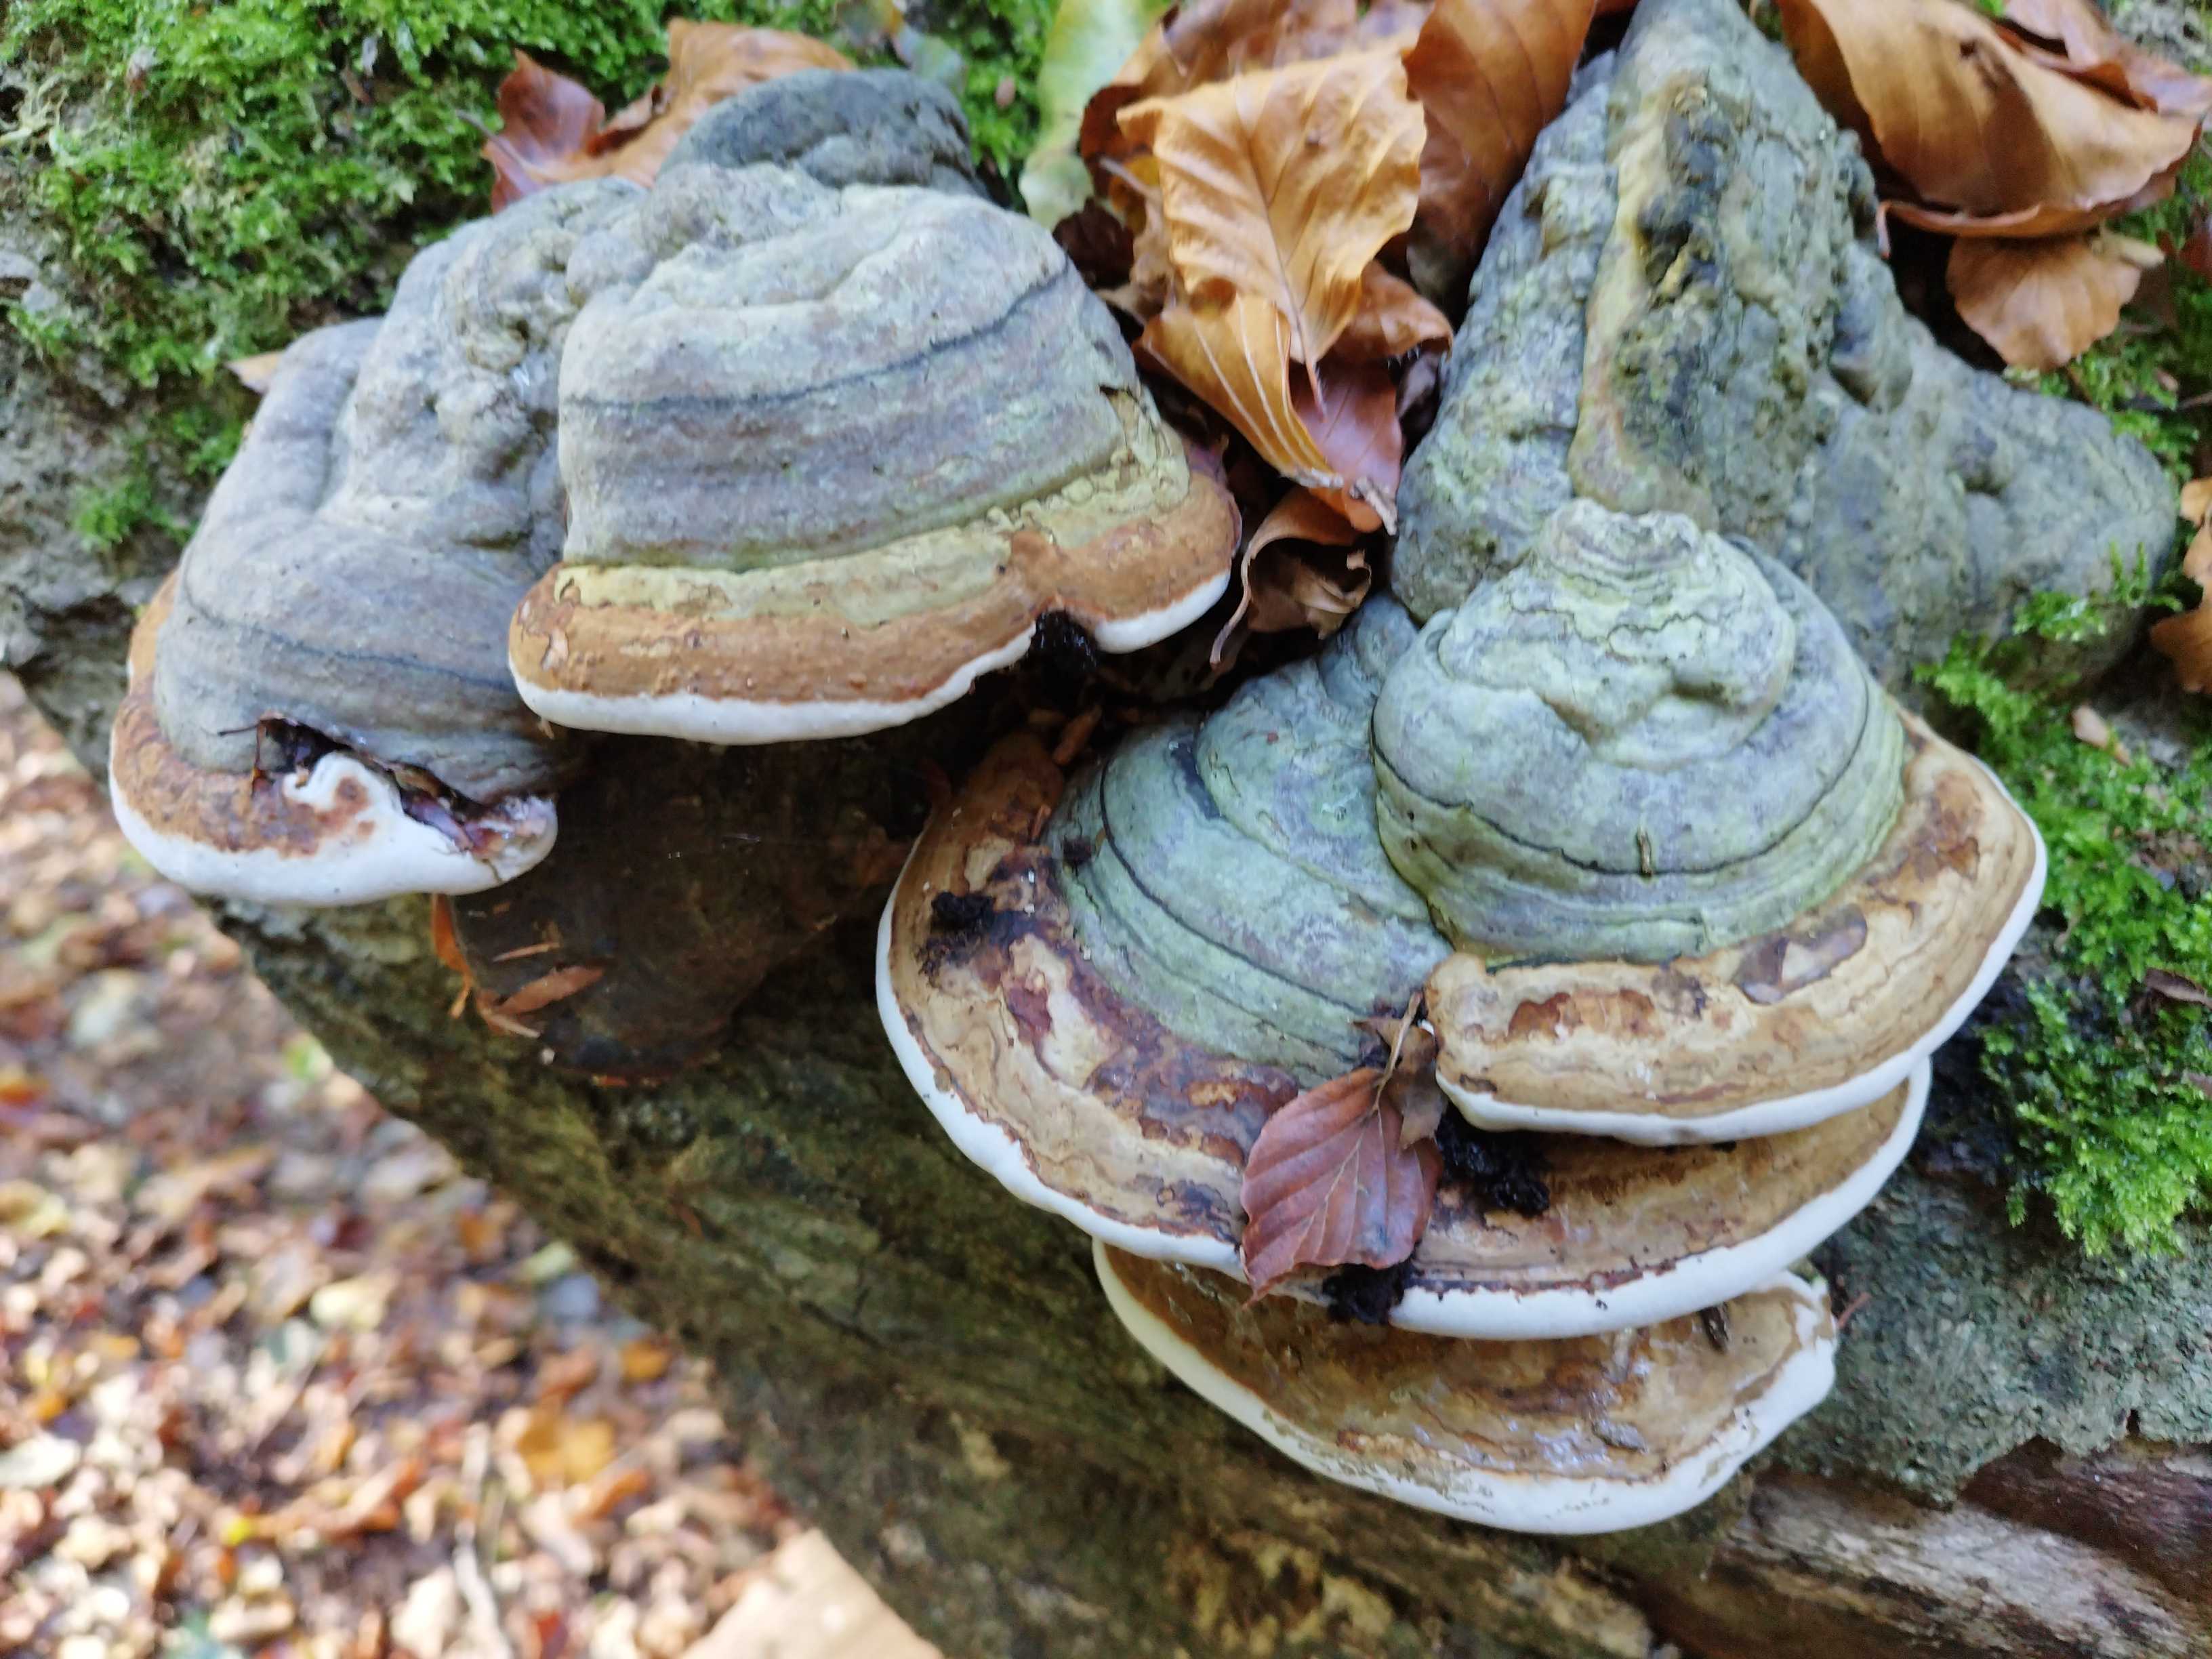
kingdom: Fungi
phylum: Basidiomycota
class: Agaricomycetes
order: Polyporales
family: Polyporaceae
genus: Fomes
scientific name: Fomes fomentarius
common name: tøndersvamp
